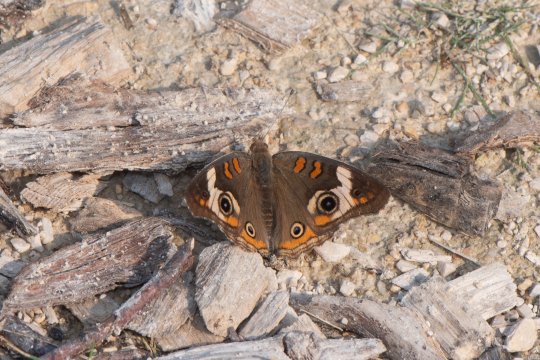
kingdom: Animalia
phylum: Arthropoda
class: Insecta
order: Lepidoptera
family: Nymphalidae
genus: Junonia
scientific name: Junonia coenia
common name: Common Buckeye
